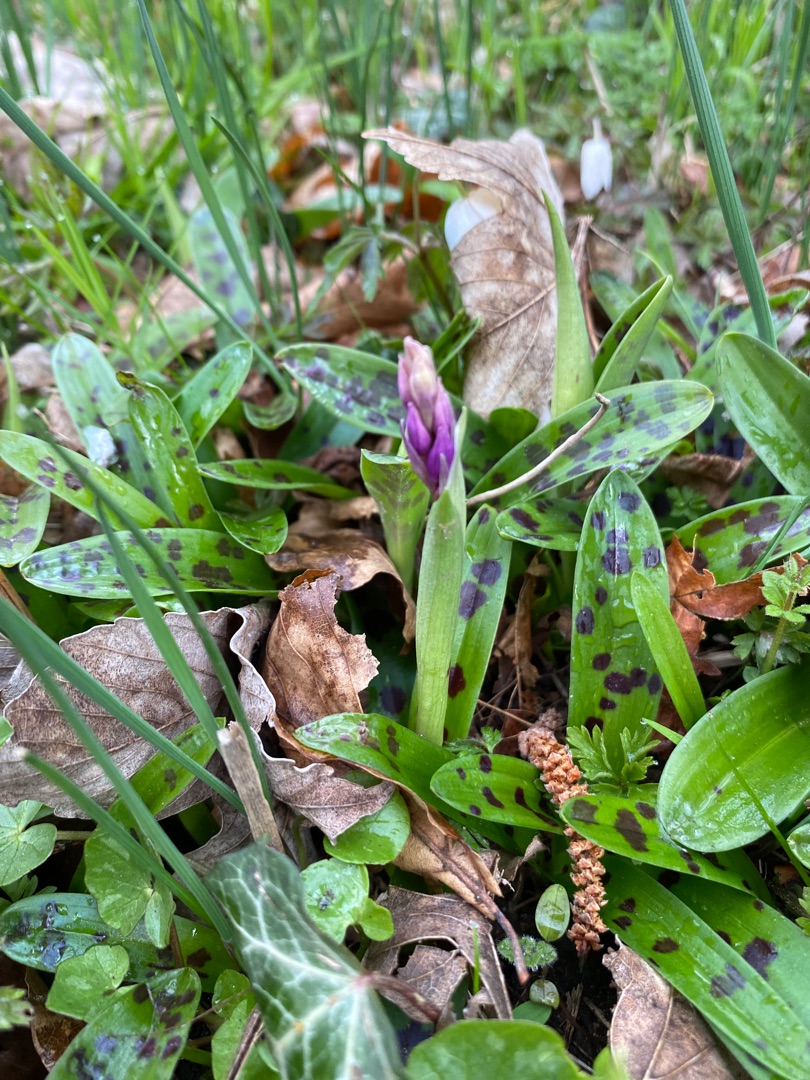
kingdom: Plantae
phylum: Tracheophyta
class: Liliopsida
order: Asparagales
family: Orchidaceae
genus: Orchis
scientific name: Orchis mascula
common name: Tyndakset gøgeurt
